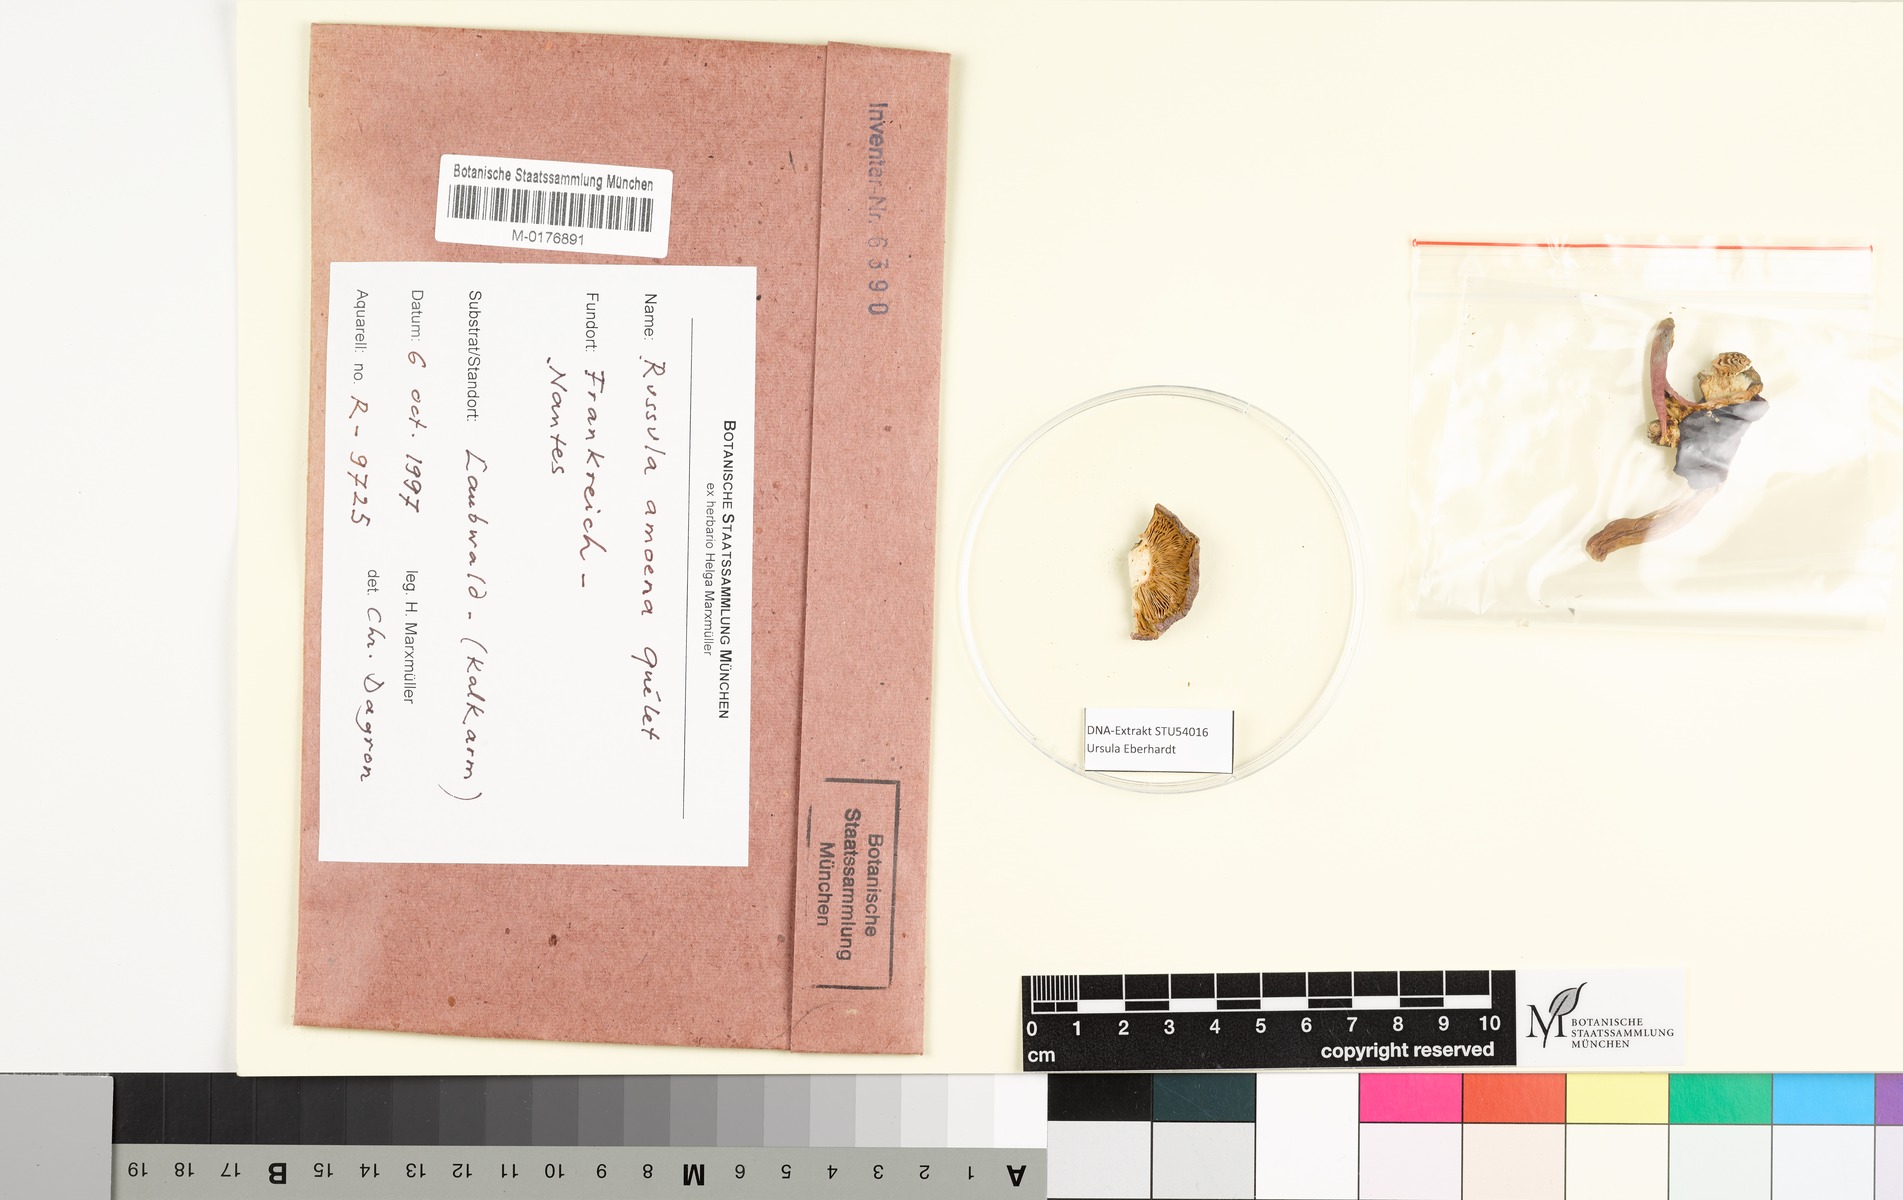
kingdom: Fungi
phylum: Basidiomycota
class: Agaricomycetes
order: Russulales
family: Russulaceae
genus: Russula
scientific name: Russula amoena
